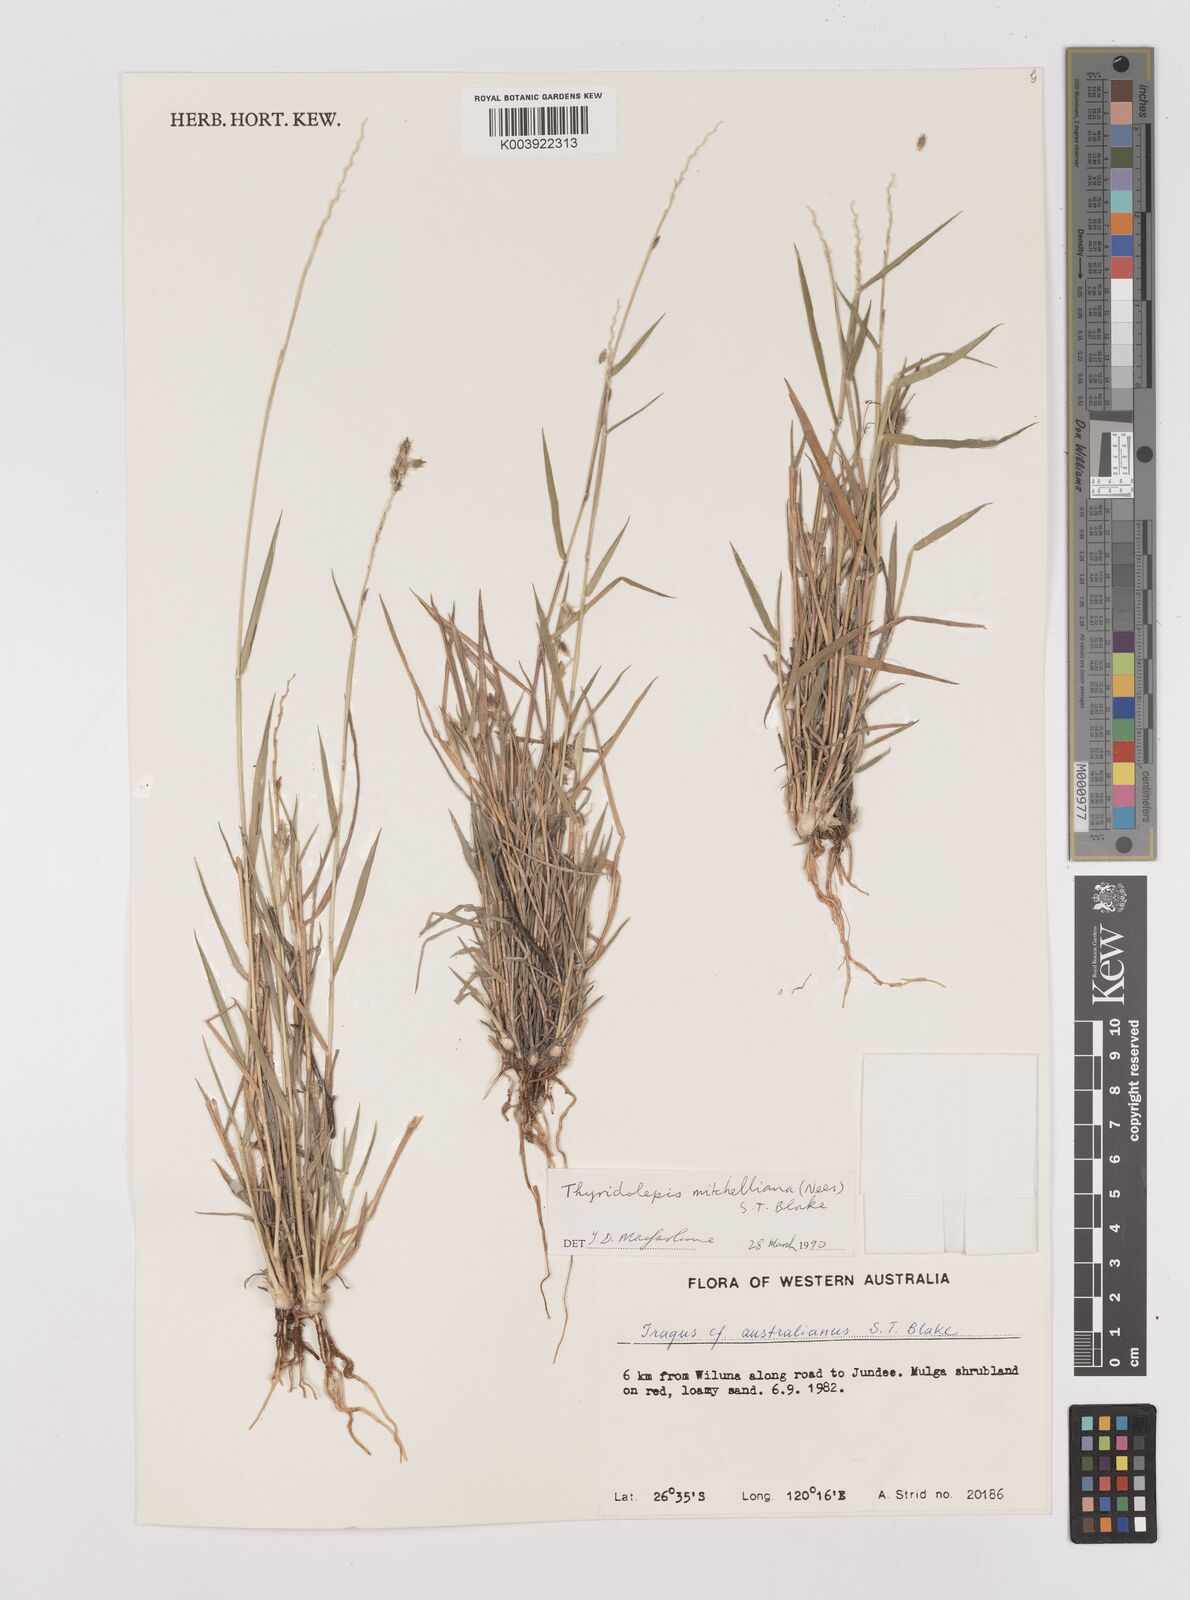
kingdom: Plantae
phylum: Tracheophyta
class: Liliopsida
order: Poales
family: Poaceae
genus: Thyridolepis
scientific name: Thyridolepis mitchelliana
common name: Rock tassel grass
